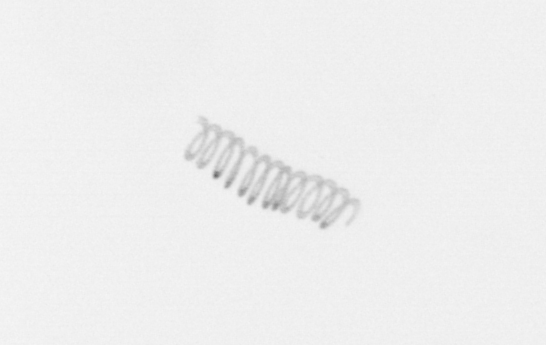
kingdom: Chromista
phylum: Ochrophyta
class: Bacillariophyceae
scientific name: Bacillariophyceae
